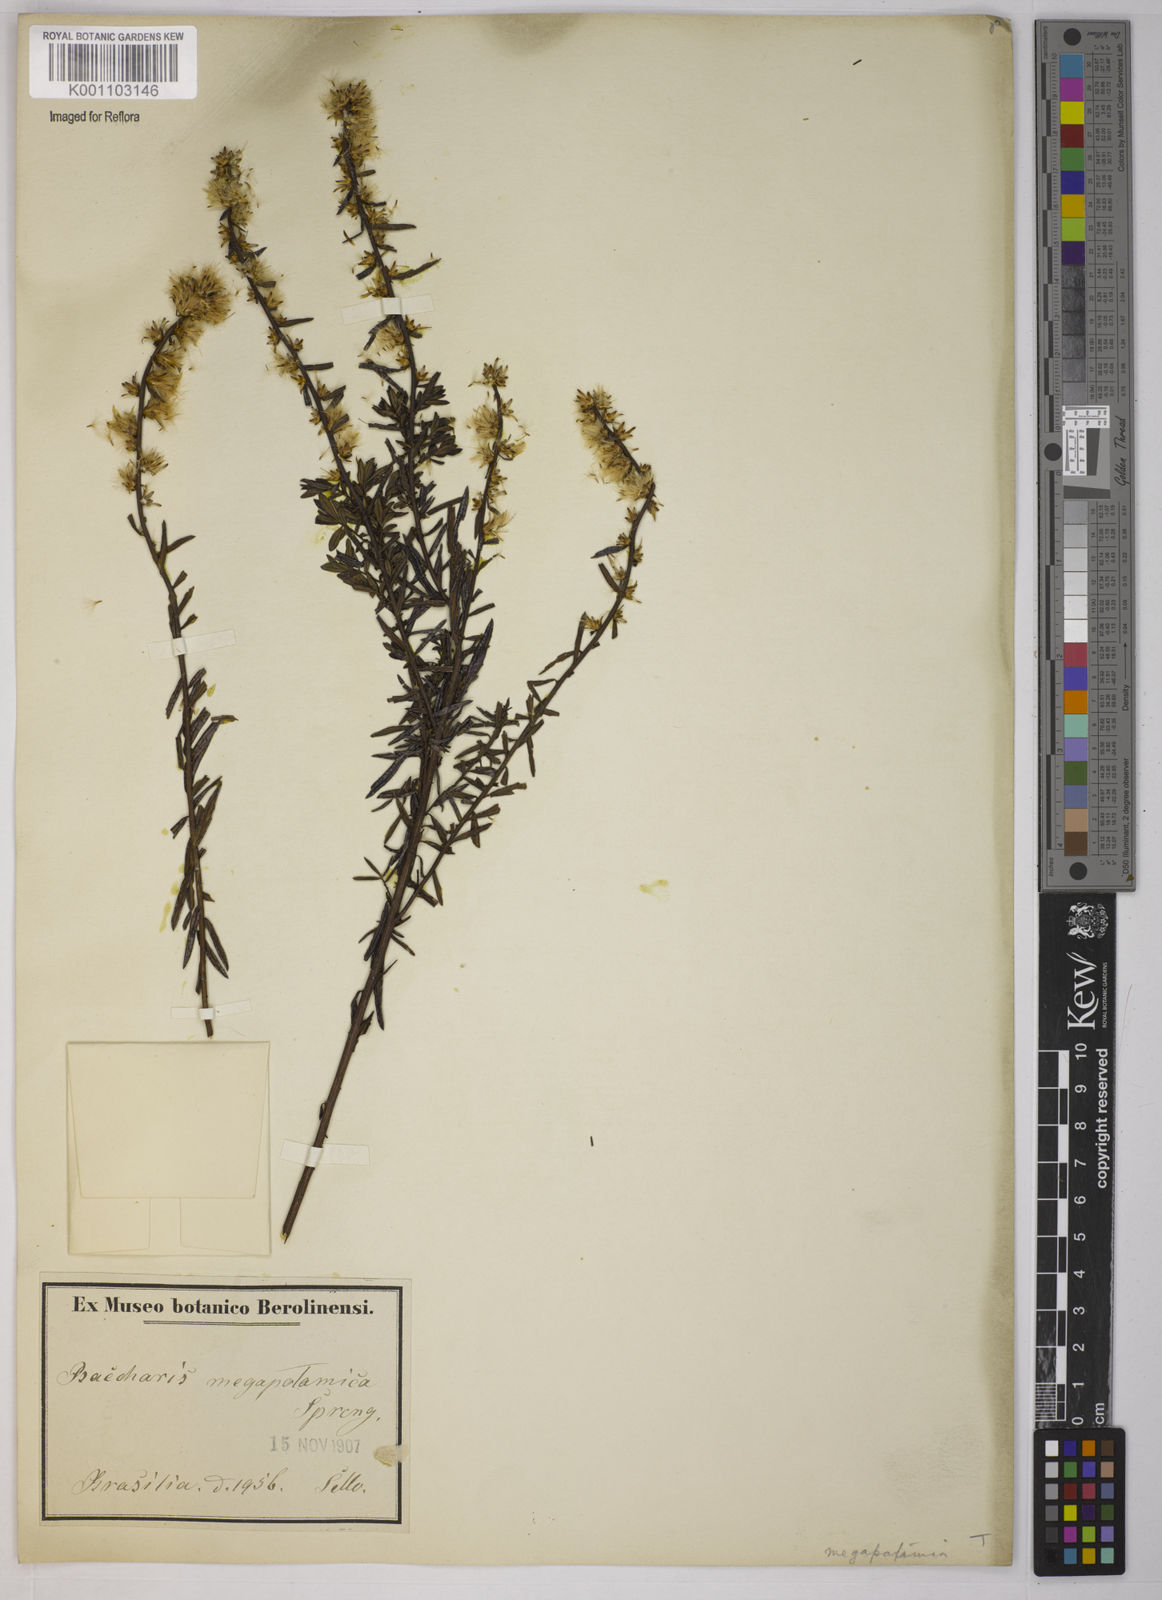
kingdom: Plantae
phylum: Tracheophyta
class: Magnoliopsida
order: Asterales
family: Asteraceae
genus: Baccharis
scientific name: Baccharis megapotamica
